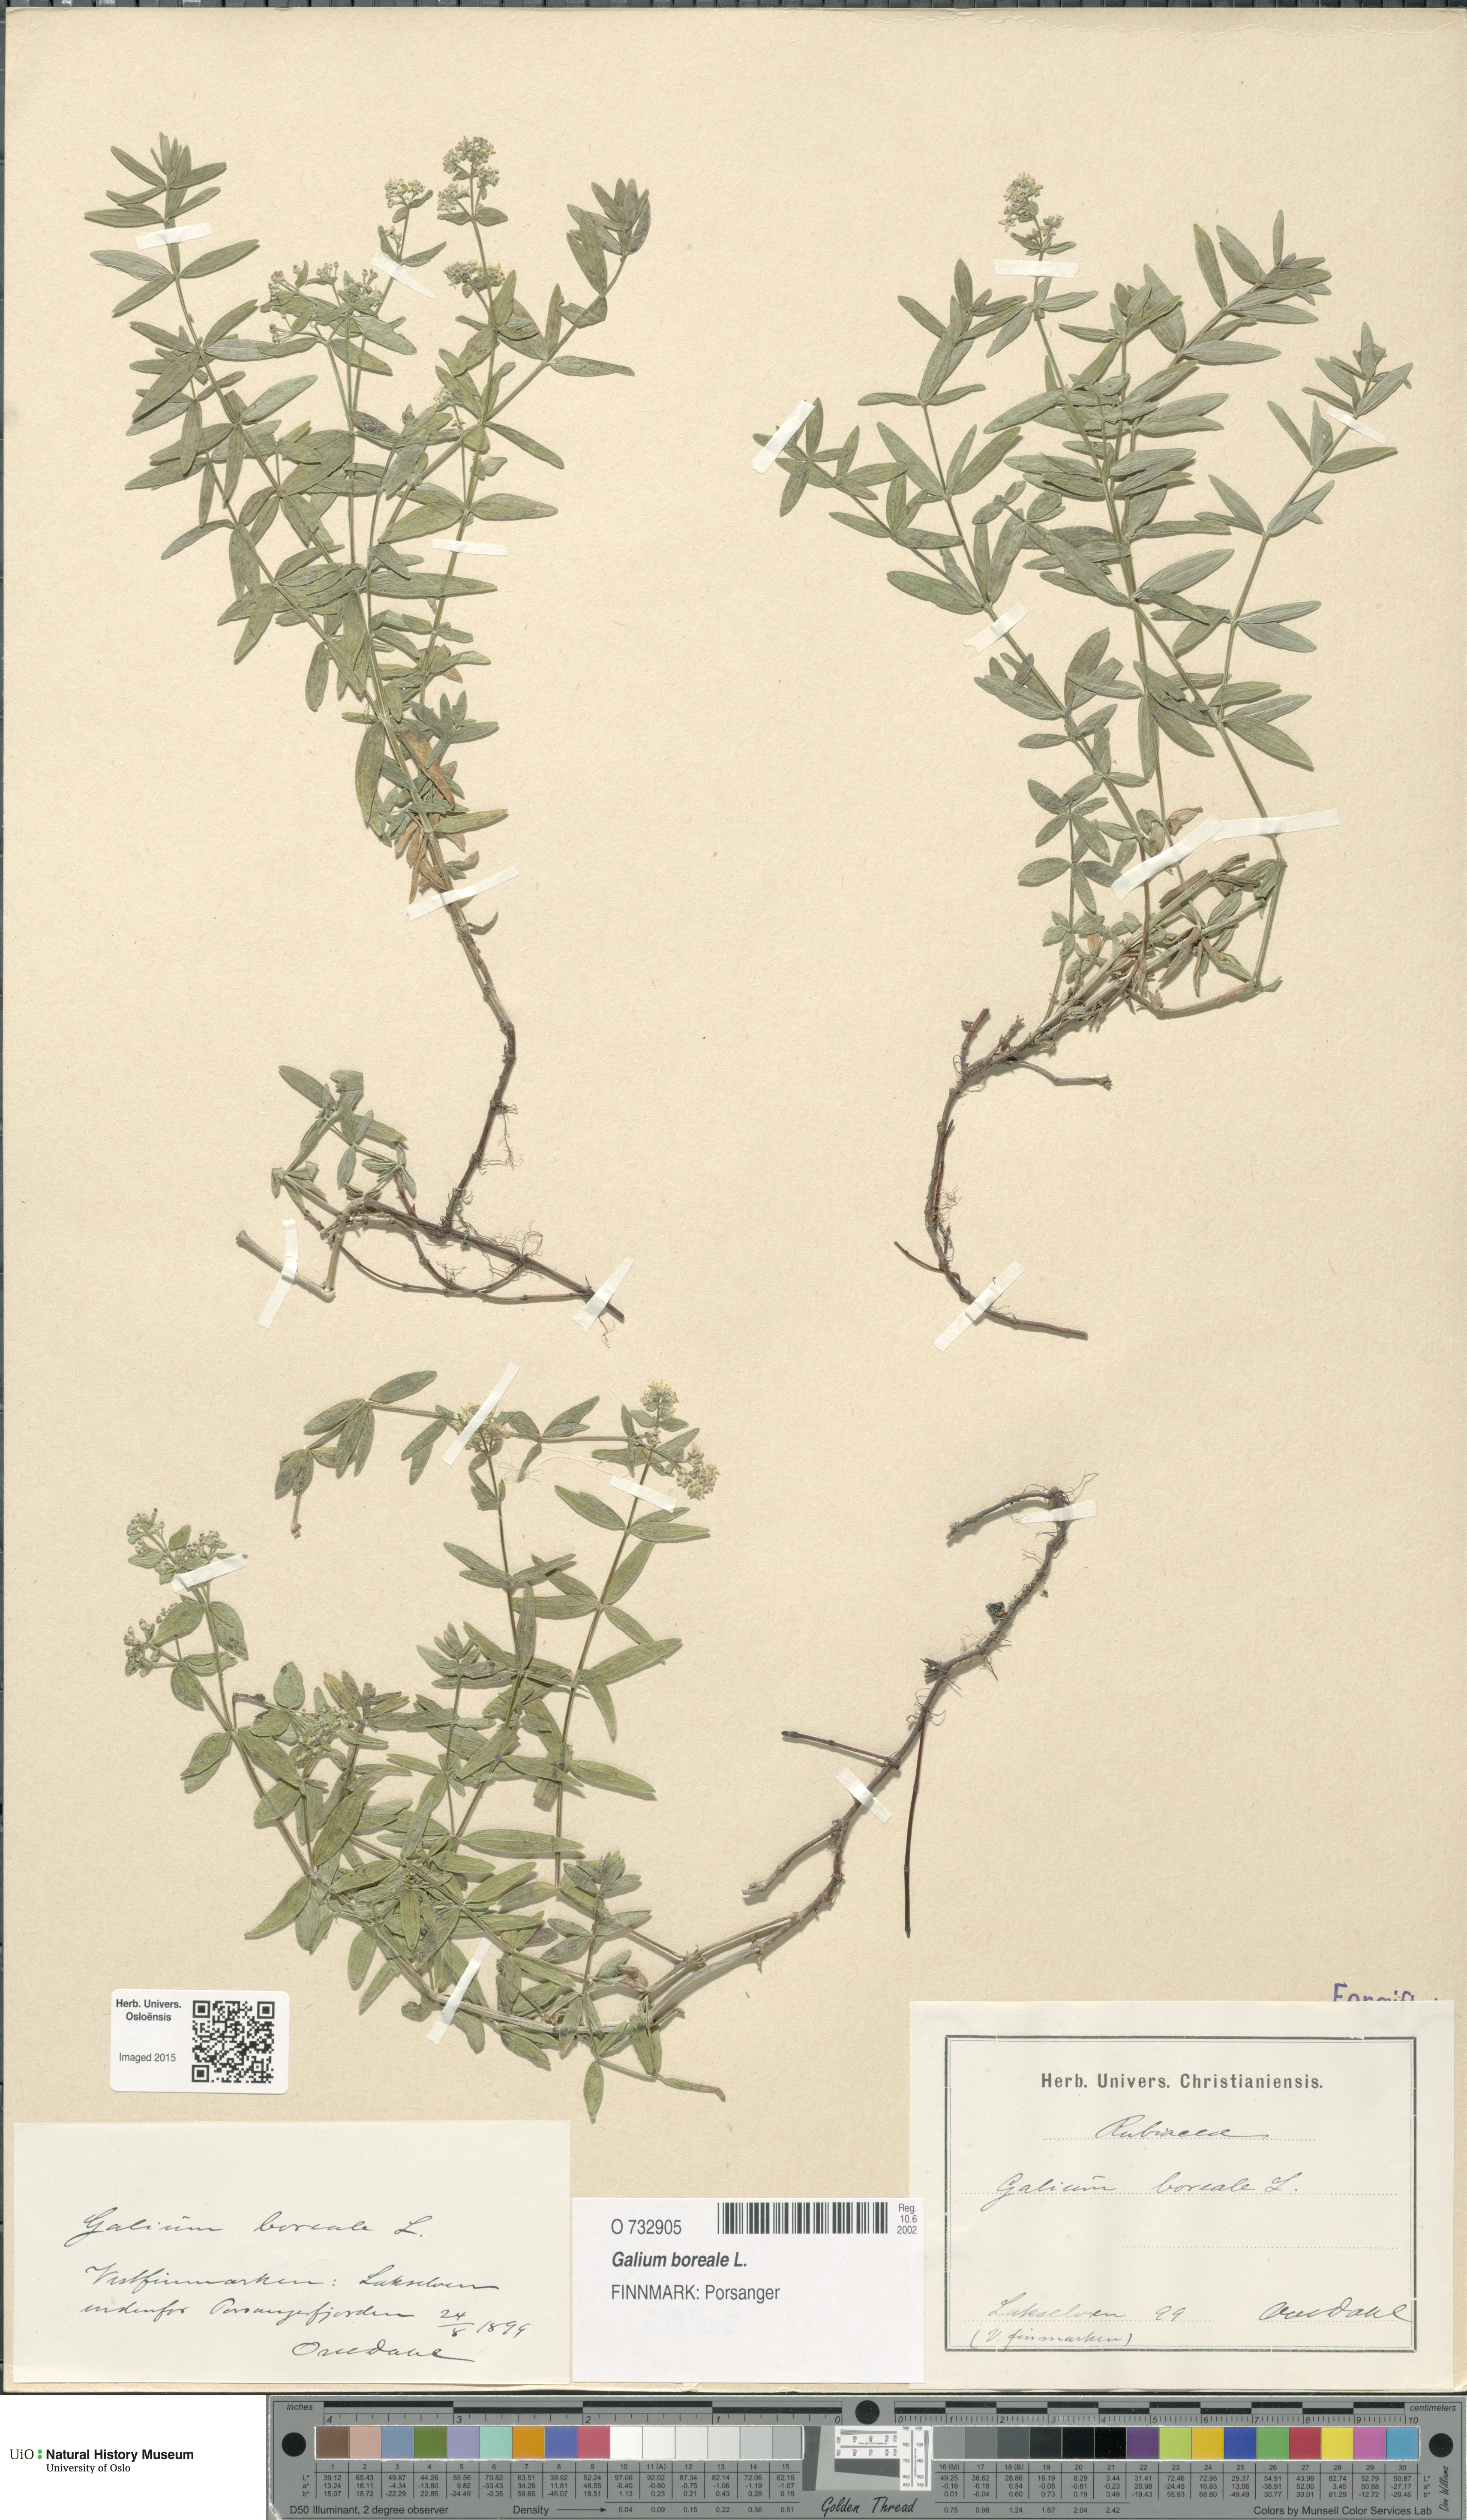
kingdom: Plantae
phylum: Tracheophyta
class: Magnoliopsida
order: Gentianales
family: Rubiaceae
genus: Galium
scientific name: Galium boreale
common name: Northern bedstraw
